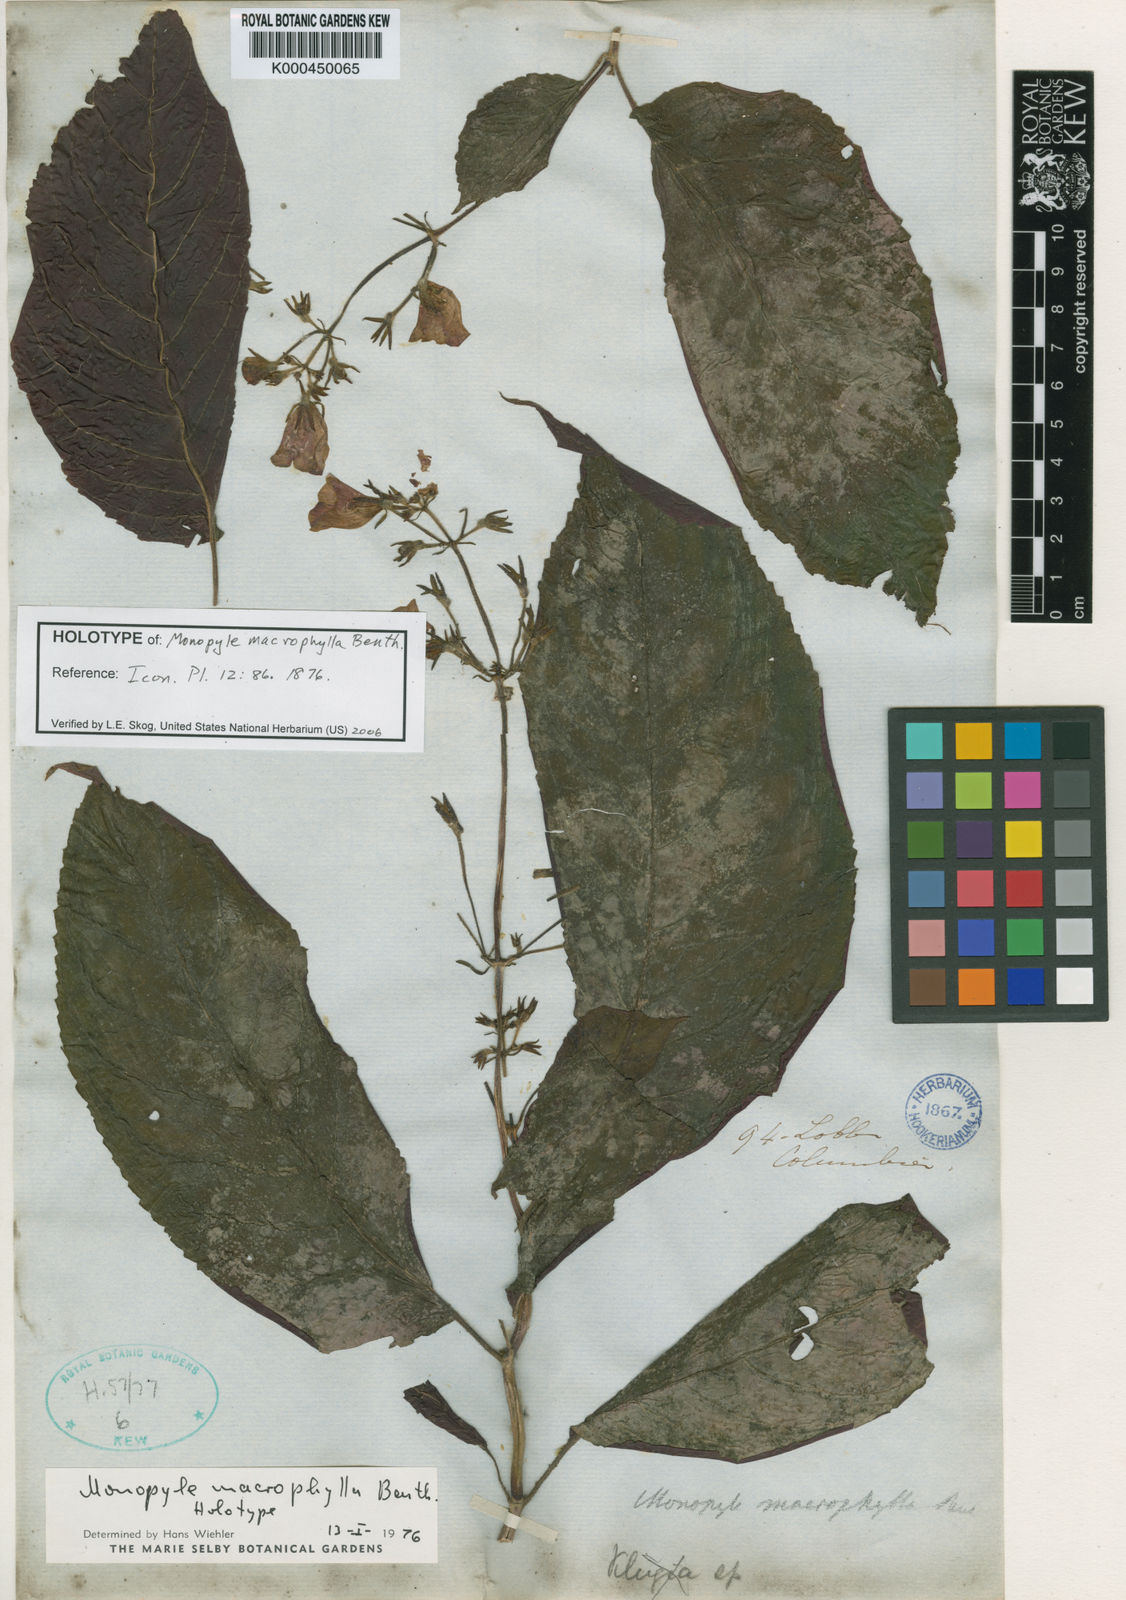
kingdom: Plantae
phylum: Tracheophyta
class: Magnoliopsida
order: Lamiales
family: Gesneriaceae
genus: Monopyle
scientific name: Monopyle macrocarpa
